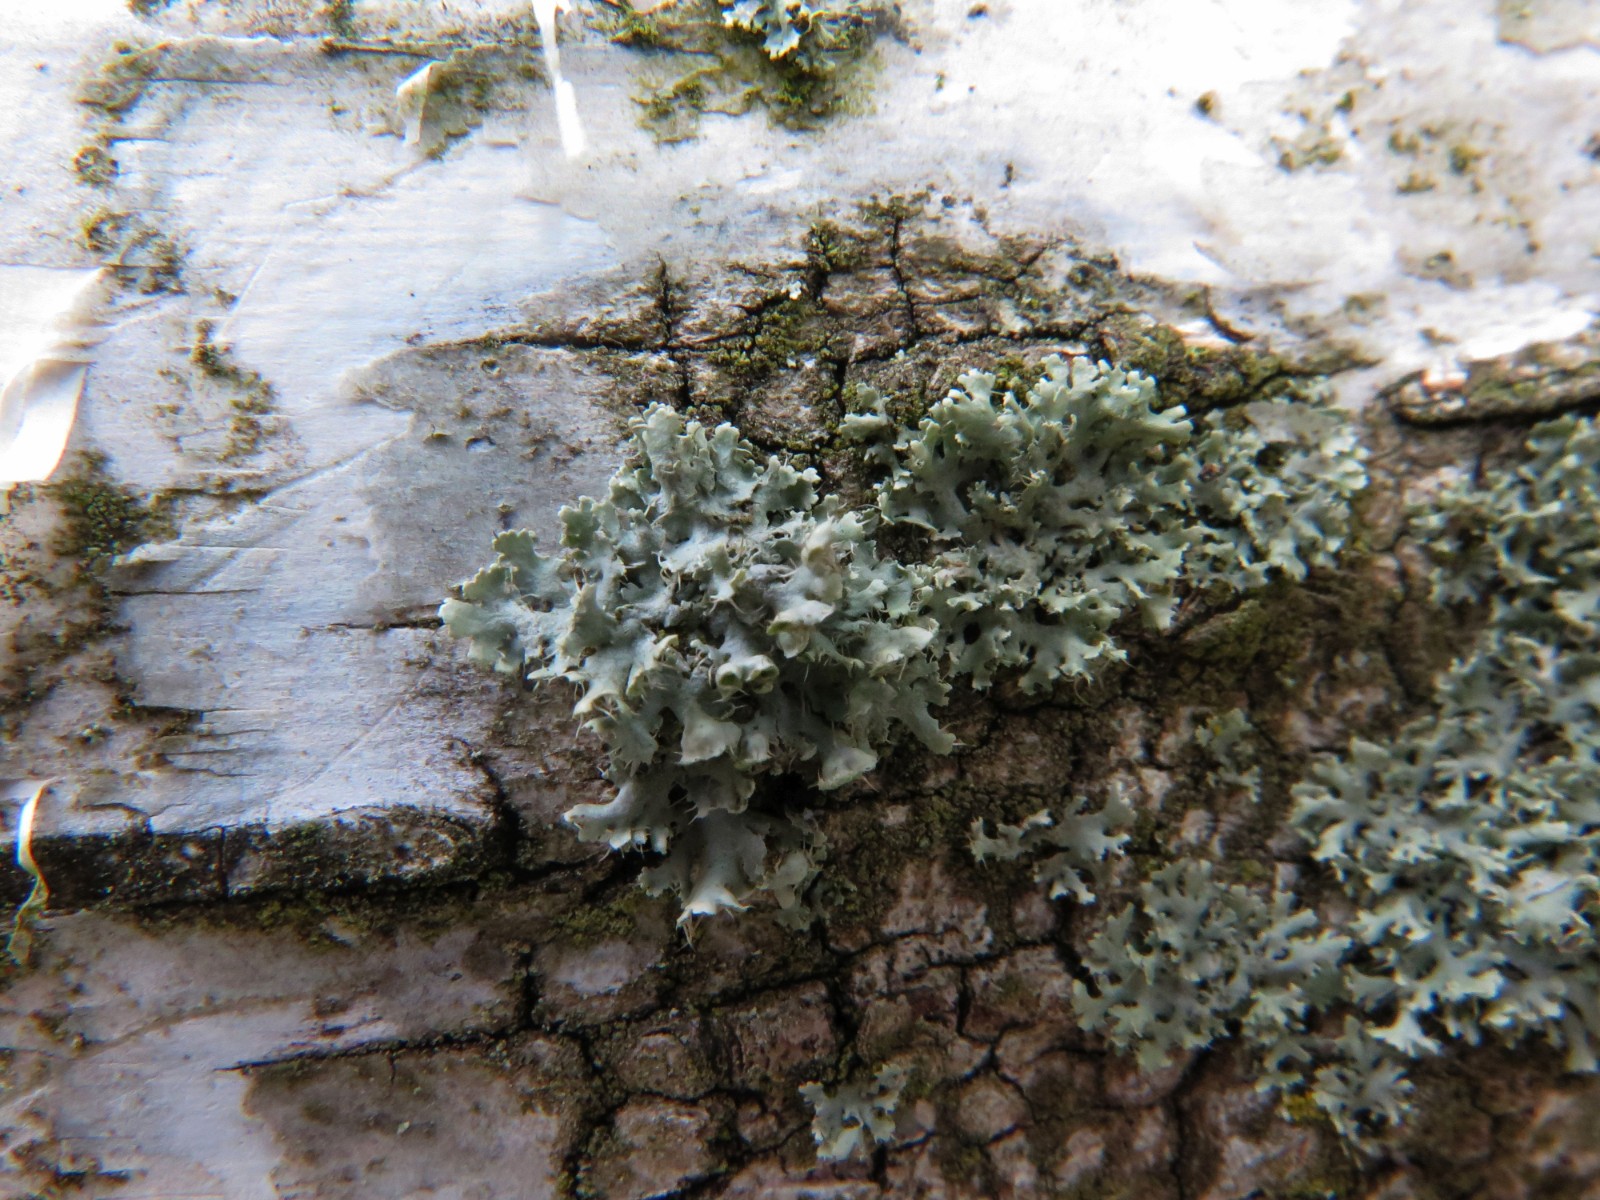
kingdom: Fungi
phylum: Ascomycota
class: Lecanoromycetes
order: Caliciales
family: Physciaceae
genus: Physcia
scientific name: Physcia adscendens
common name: hætte-rosetlav
